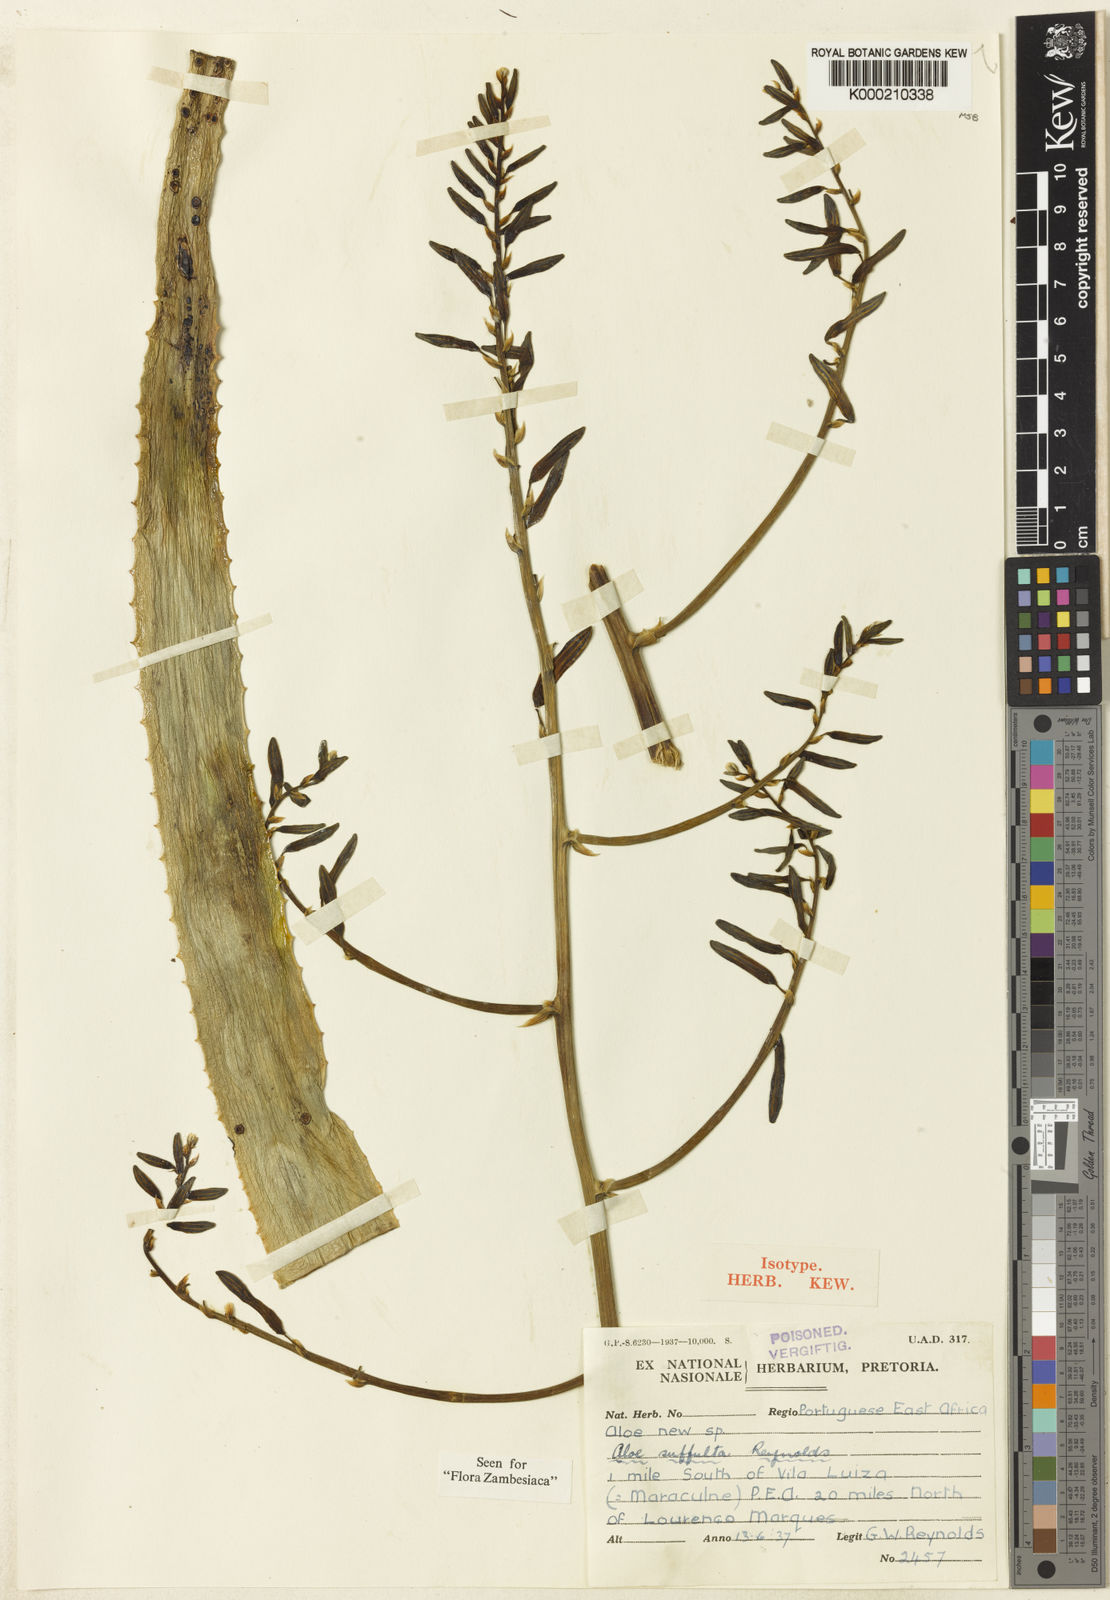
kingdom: Plantae
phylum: Tracheophyta
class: Liliopsida
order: Asparagales
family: Asphodelaceae
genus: Aloe
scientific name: Aloe suffulta
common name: Climbing-flower aloe
